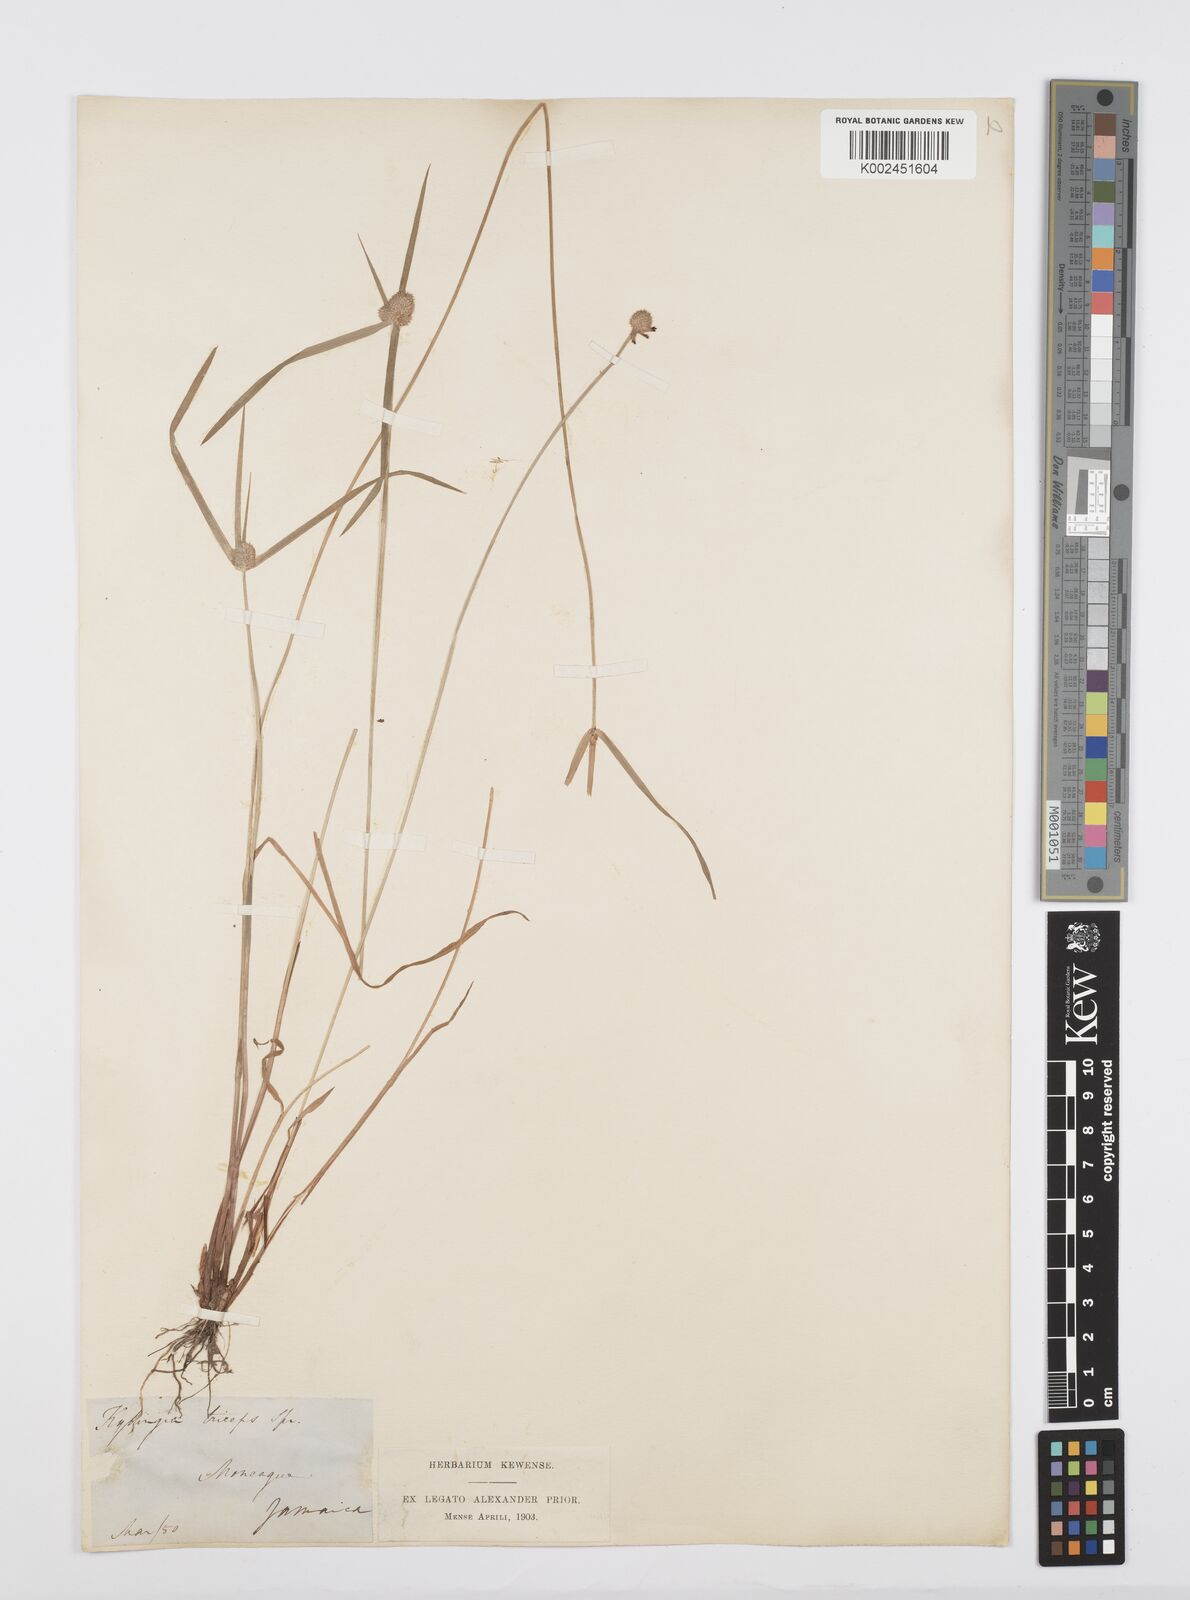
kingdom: Plantae
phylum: Tracheophyta
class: Liliopsida
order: Poales
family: Cyperaceae
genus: Cyperus
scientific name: Cyperus
